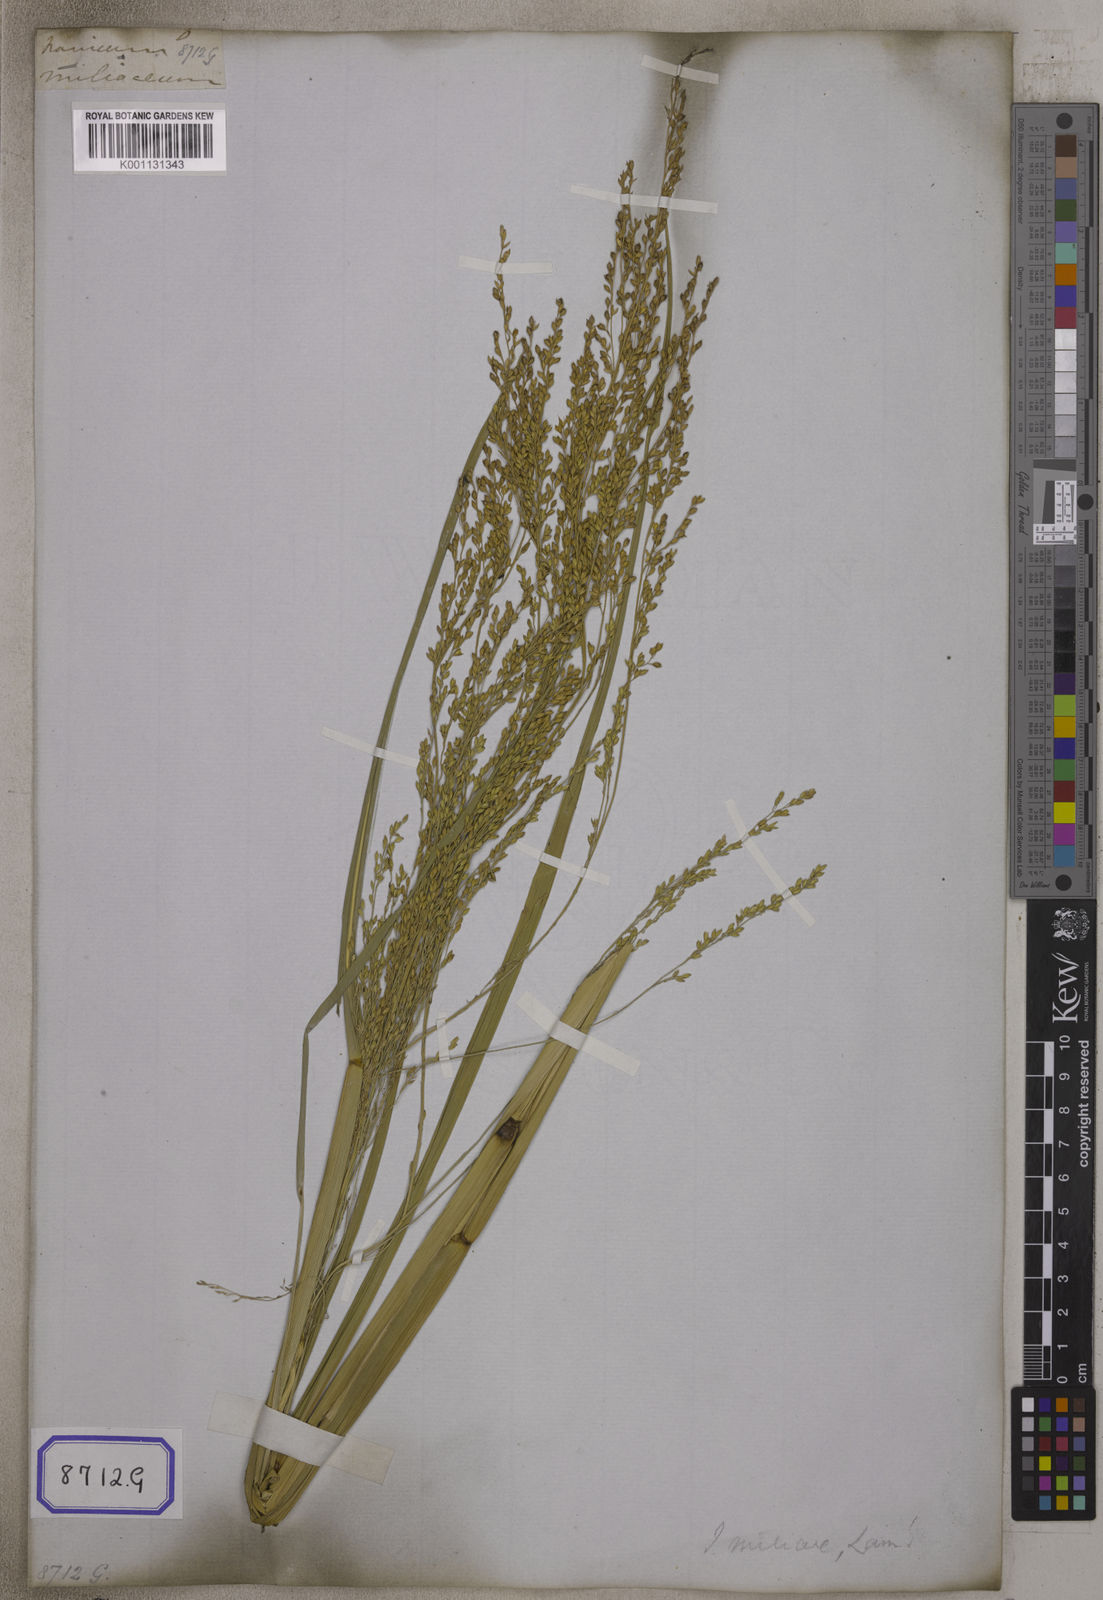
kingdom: Plantae
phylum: Tracheophyta
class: Liliopsida
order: Poales
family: Poaceae
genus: Panicum
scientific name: Panicum antidotale
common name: Blue panicum
